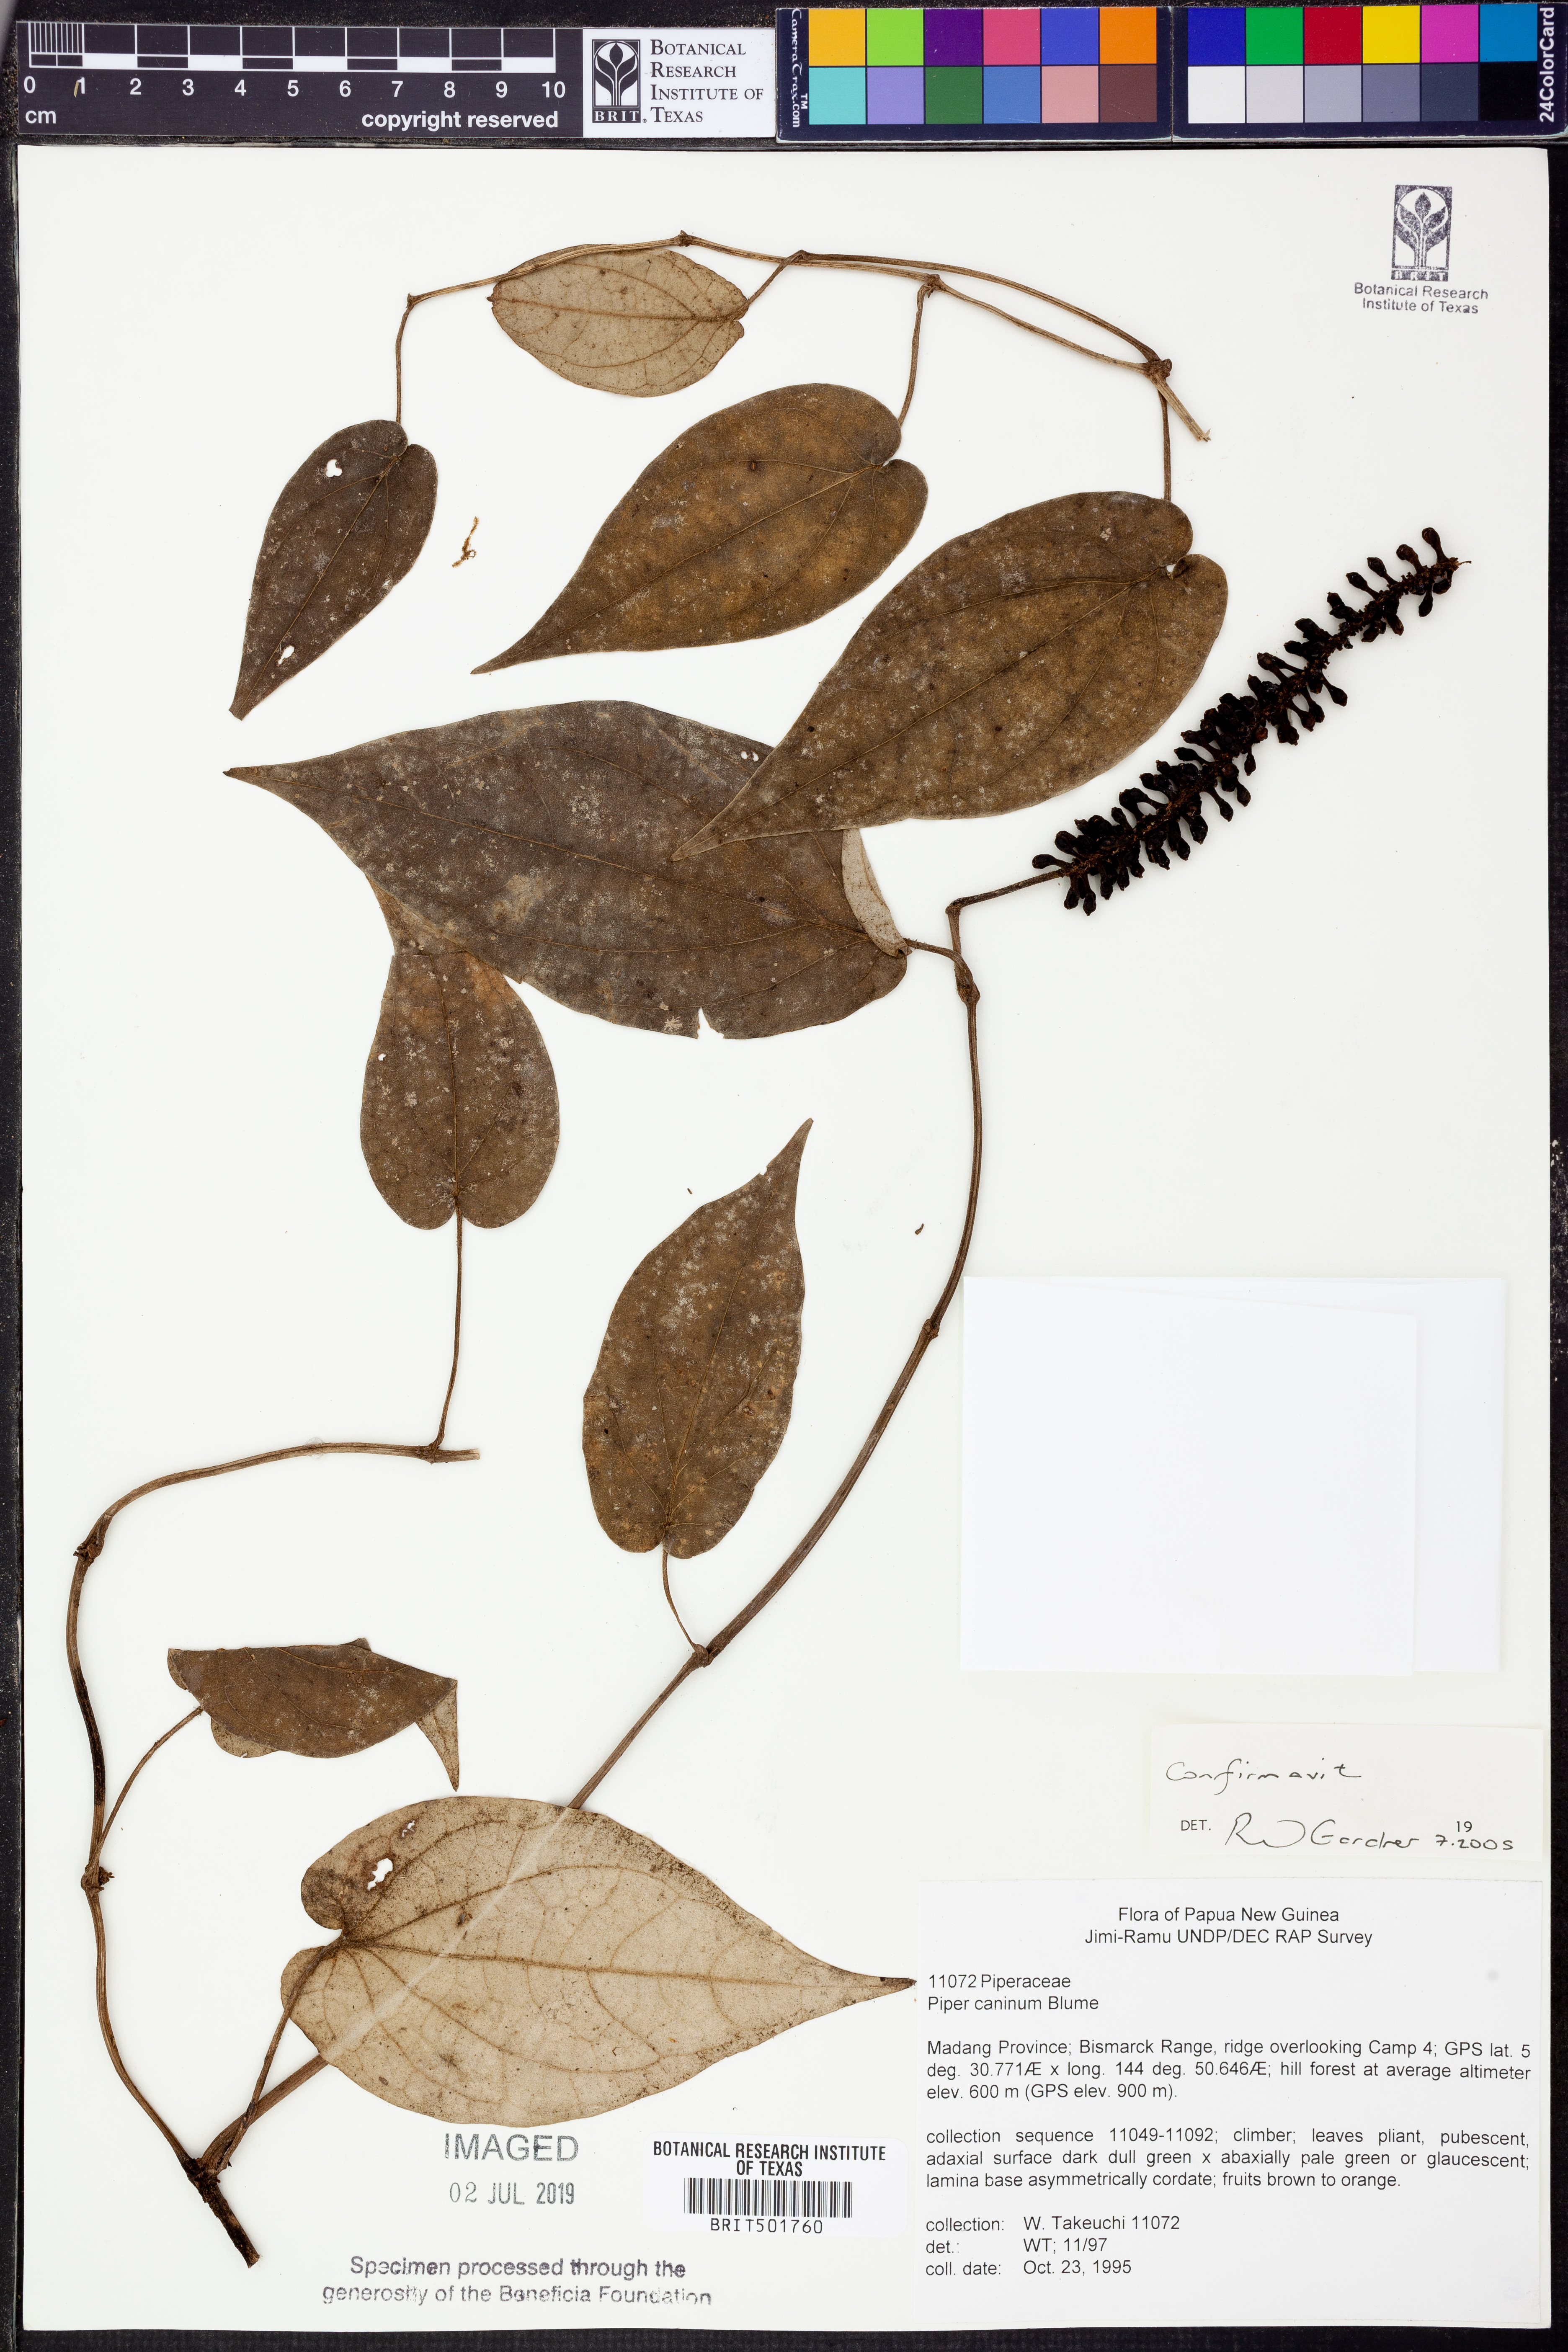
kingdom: Plantae
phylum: Tracheophyta
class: Magnoliopsida
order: Piperales
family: Piperaceae
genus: Piper
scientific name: Piper lanatum
